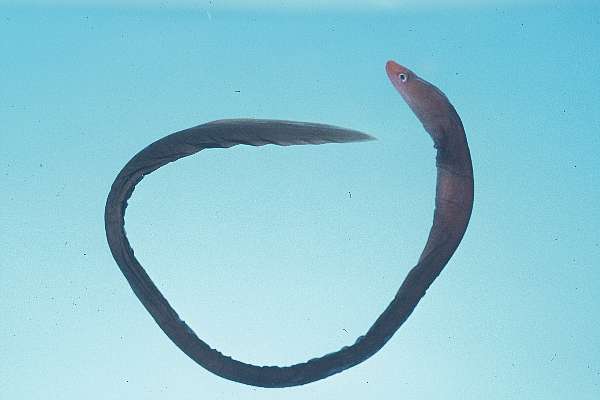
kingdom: Animalia
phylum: Chordata
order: Anguilliformes
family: Muraenidae
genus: Monopenchelys
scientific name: Monopenchelys acuta
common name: Redface moray
